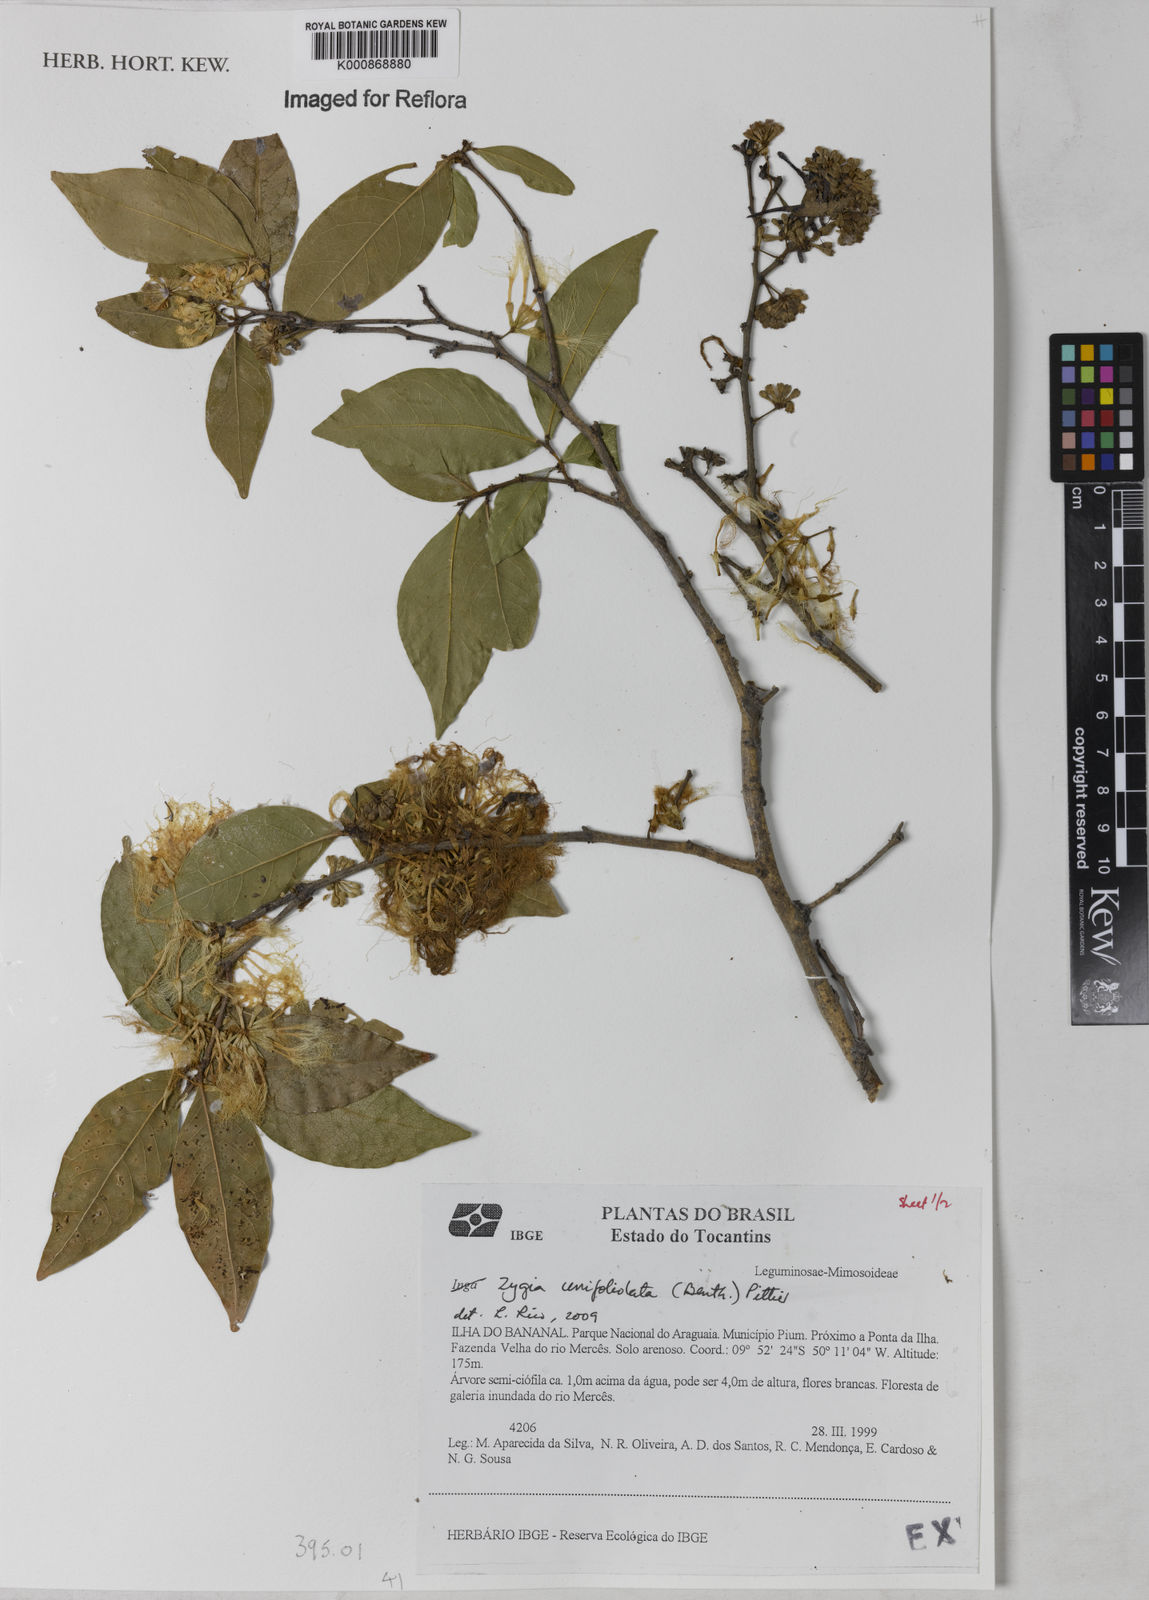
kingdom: Plantae
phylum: Tracheophyta
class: Magnoliopsida
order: Fabales
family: Fabaceae
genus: Zygia
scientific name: Zygia unifoliolata
